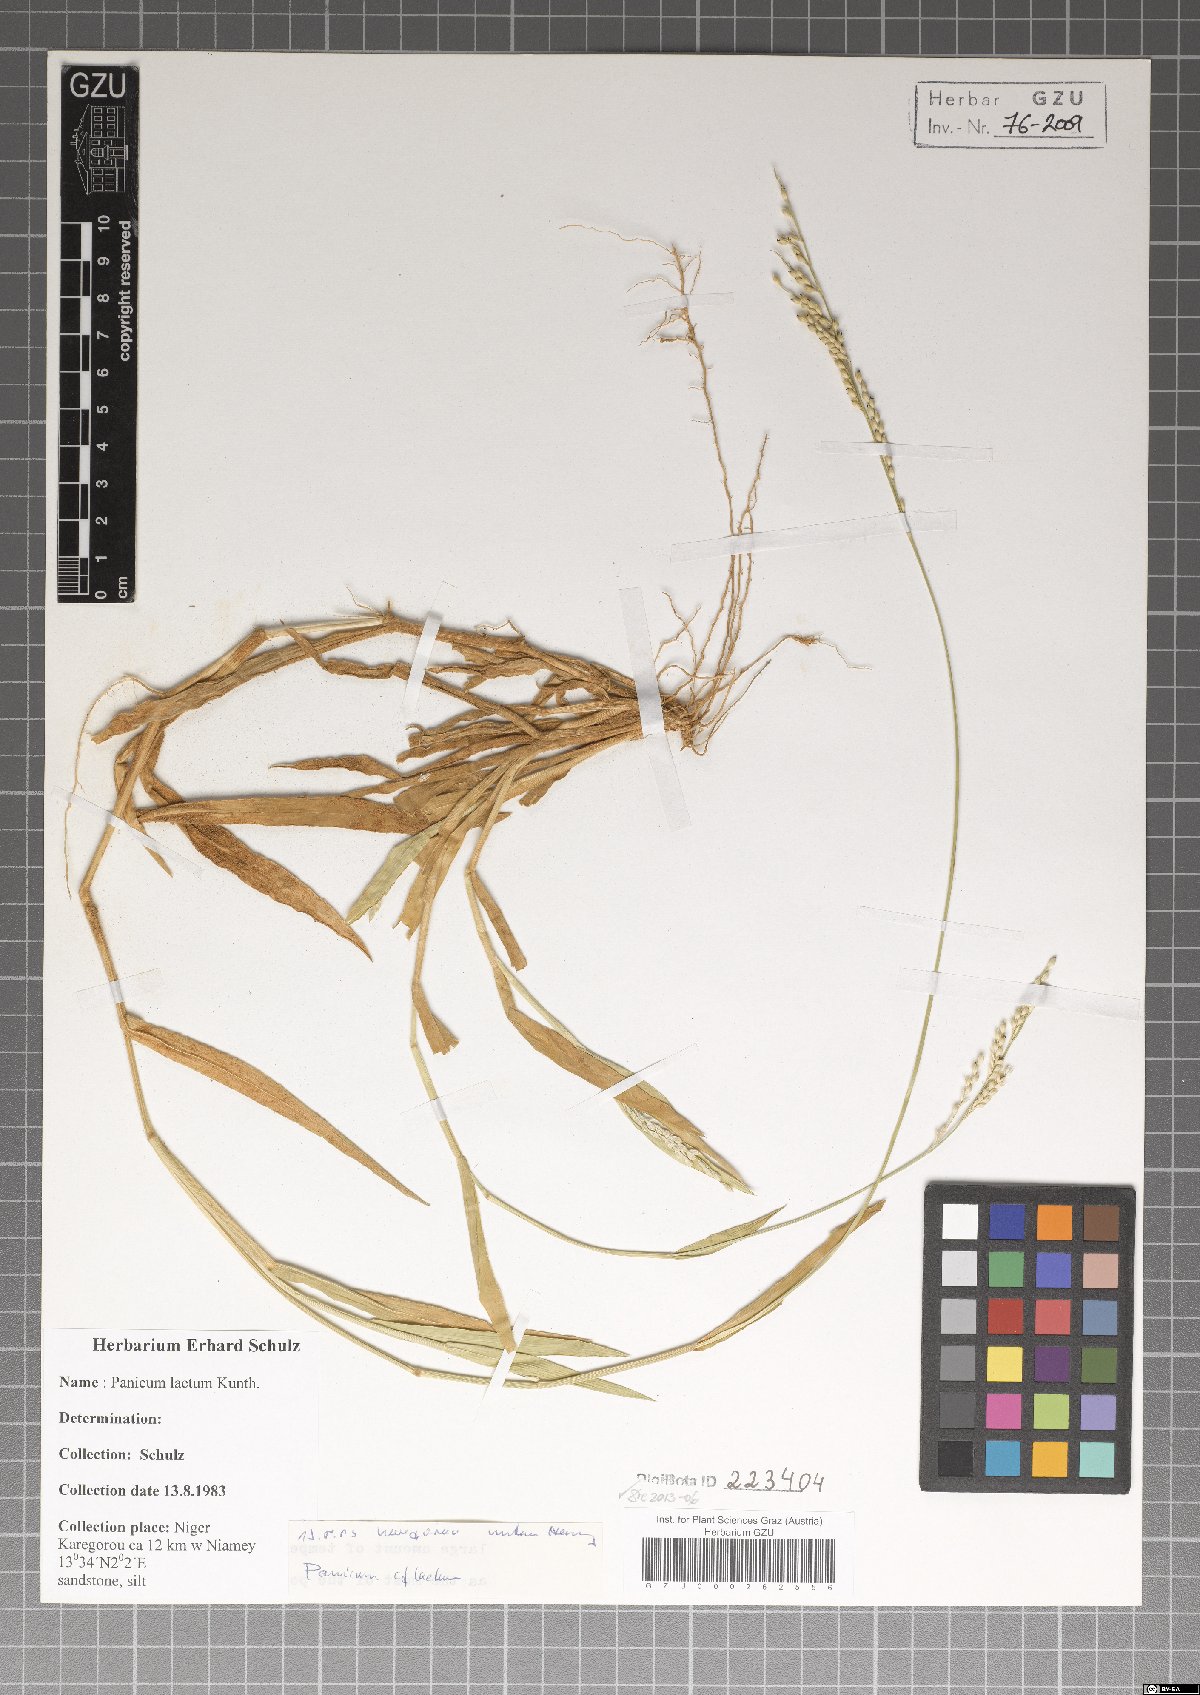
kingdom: Plantae
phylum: Tracheophyta
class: Liliopsida
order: Poales
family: Poaceae
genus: Panicum
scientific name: Panicum laetum
